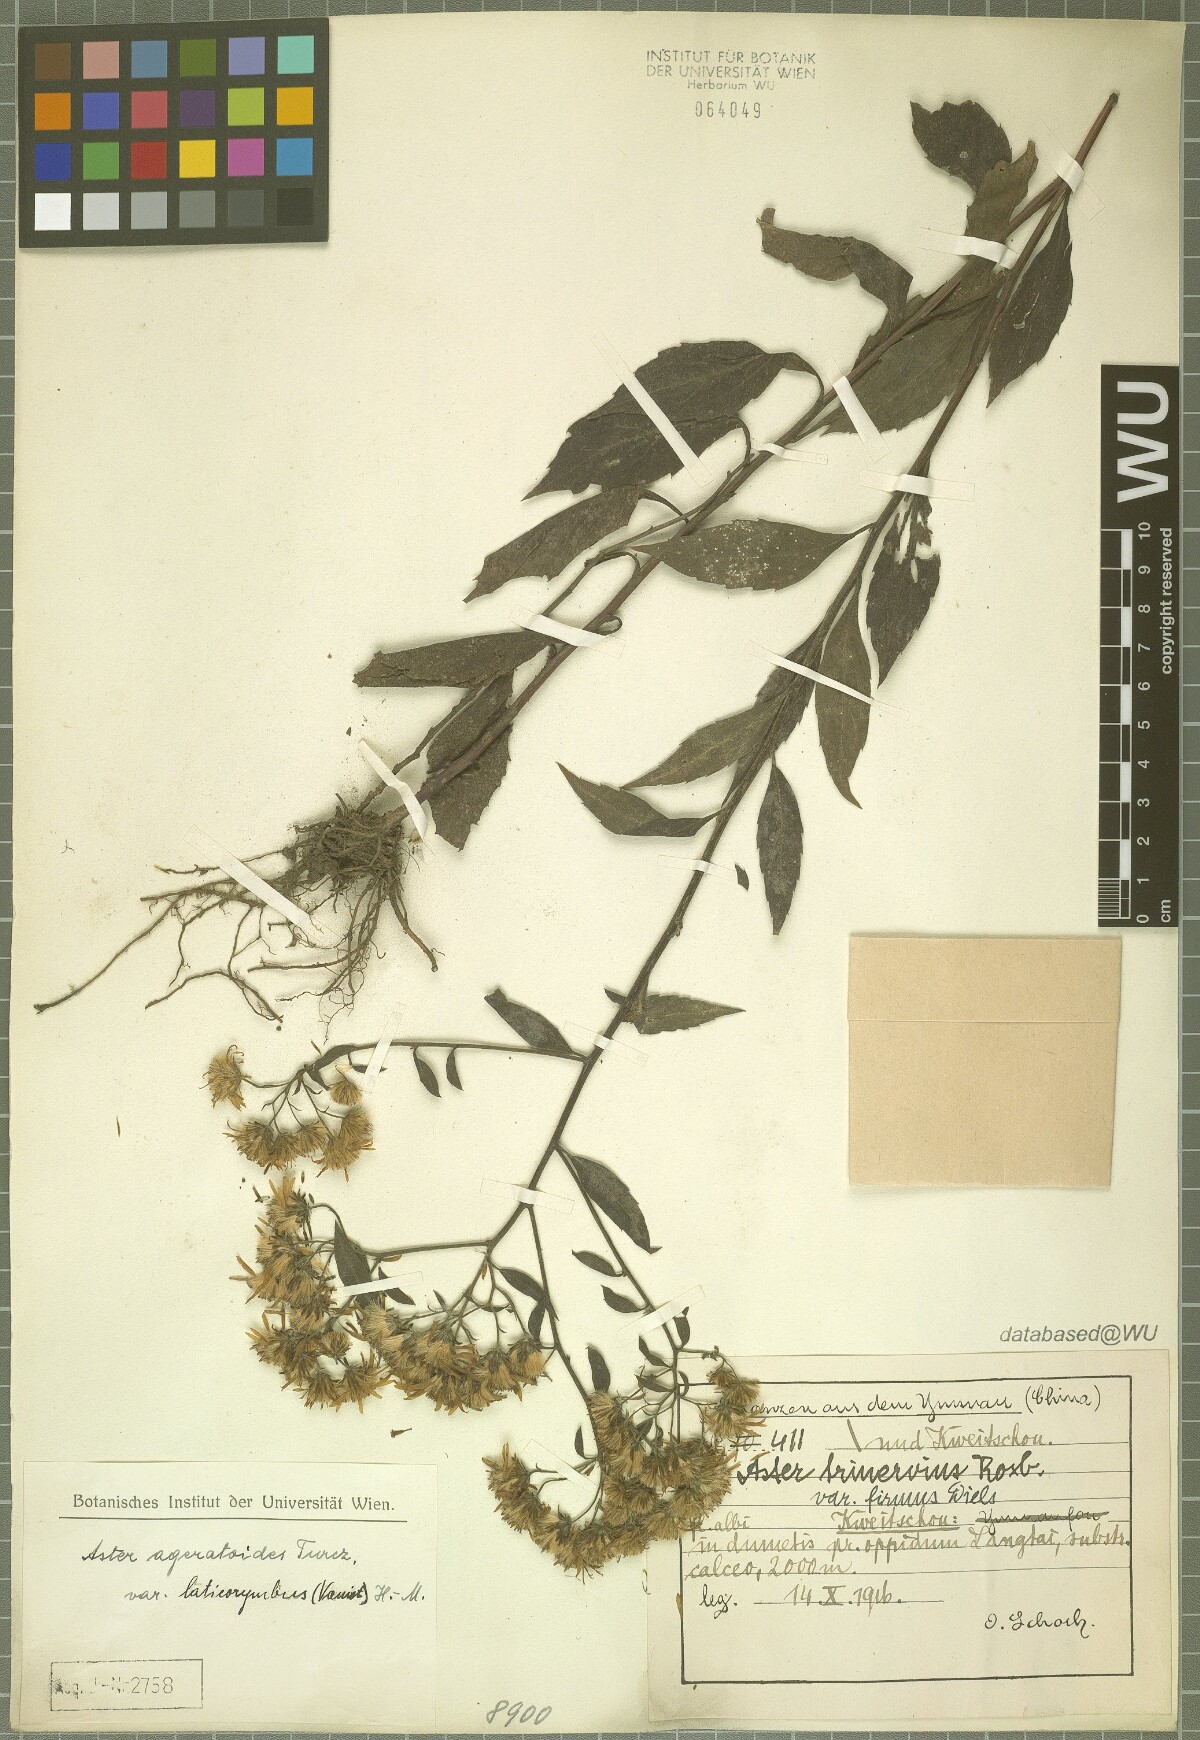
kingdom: Plantae
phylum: Tracheophyta
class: Magnoliopsida
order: Asterales
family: Asteraceae
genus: Aster
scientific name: Aster ageratoides
